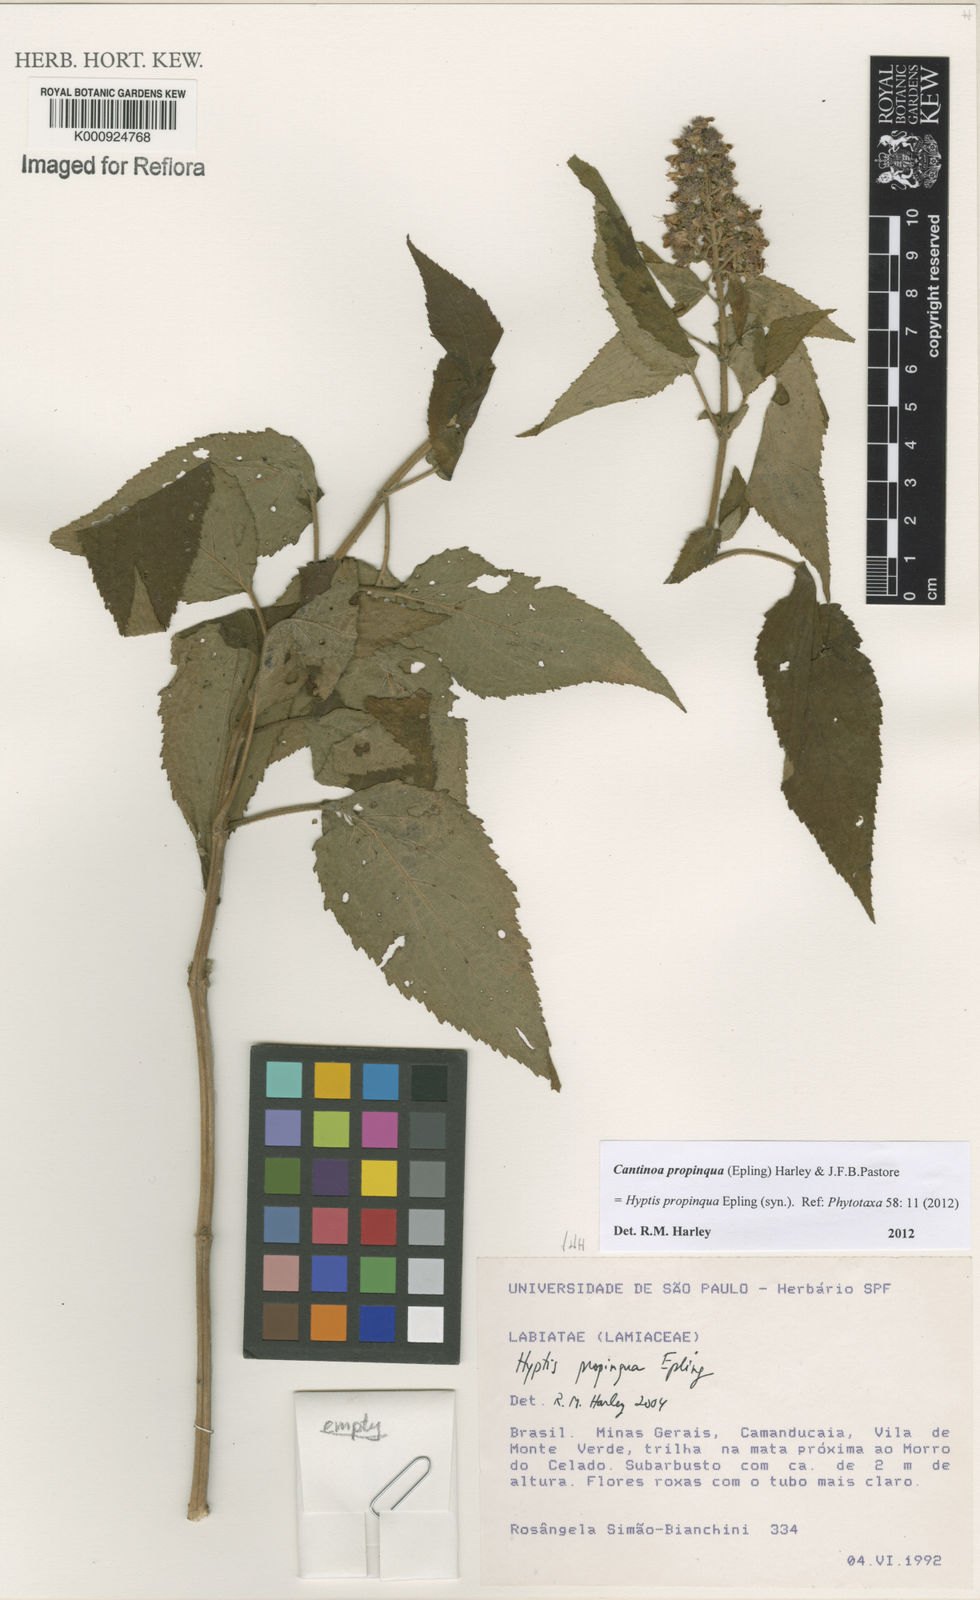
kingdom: Plantae
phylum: Tracheophyta
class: Magnoliopsida
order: Lamiales
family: Lamiaceae
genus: Cantinoa
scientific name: Cantinoa propinqua
